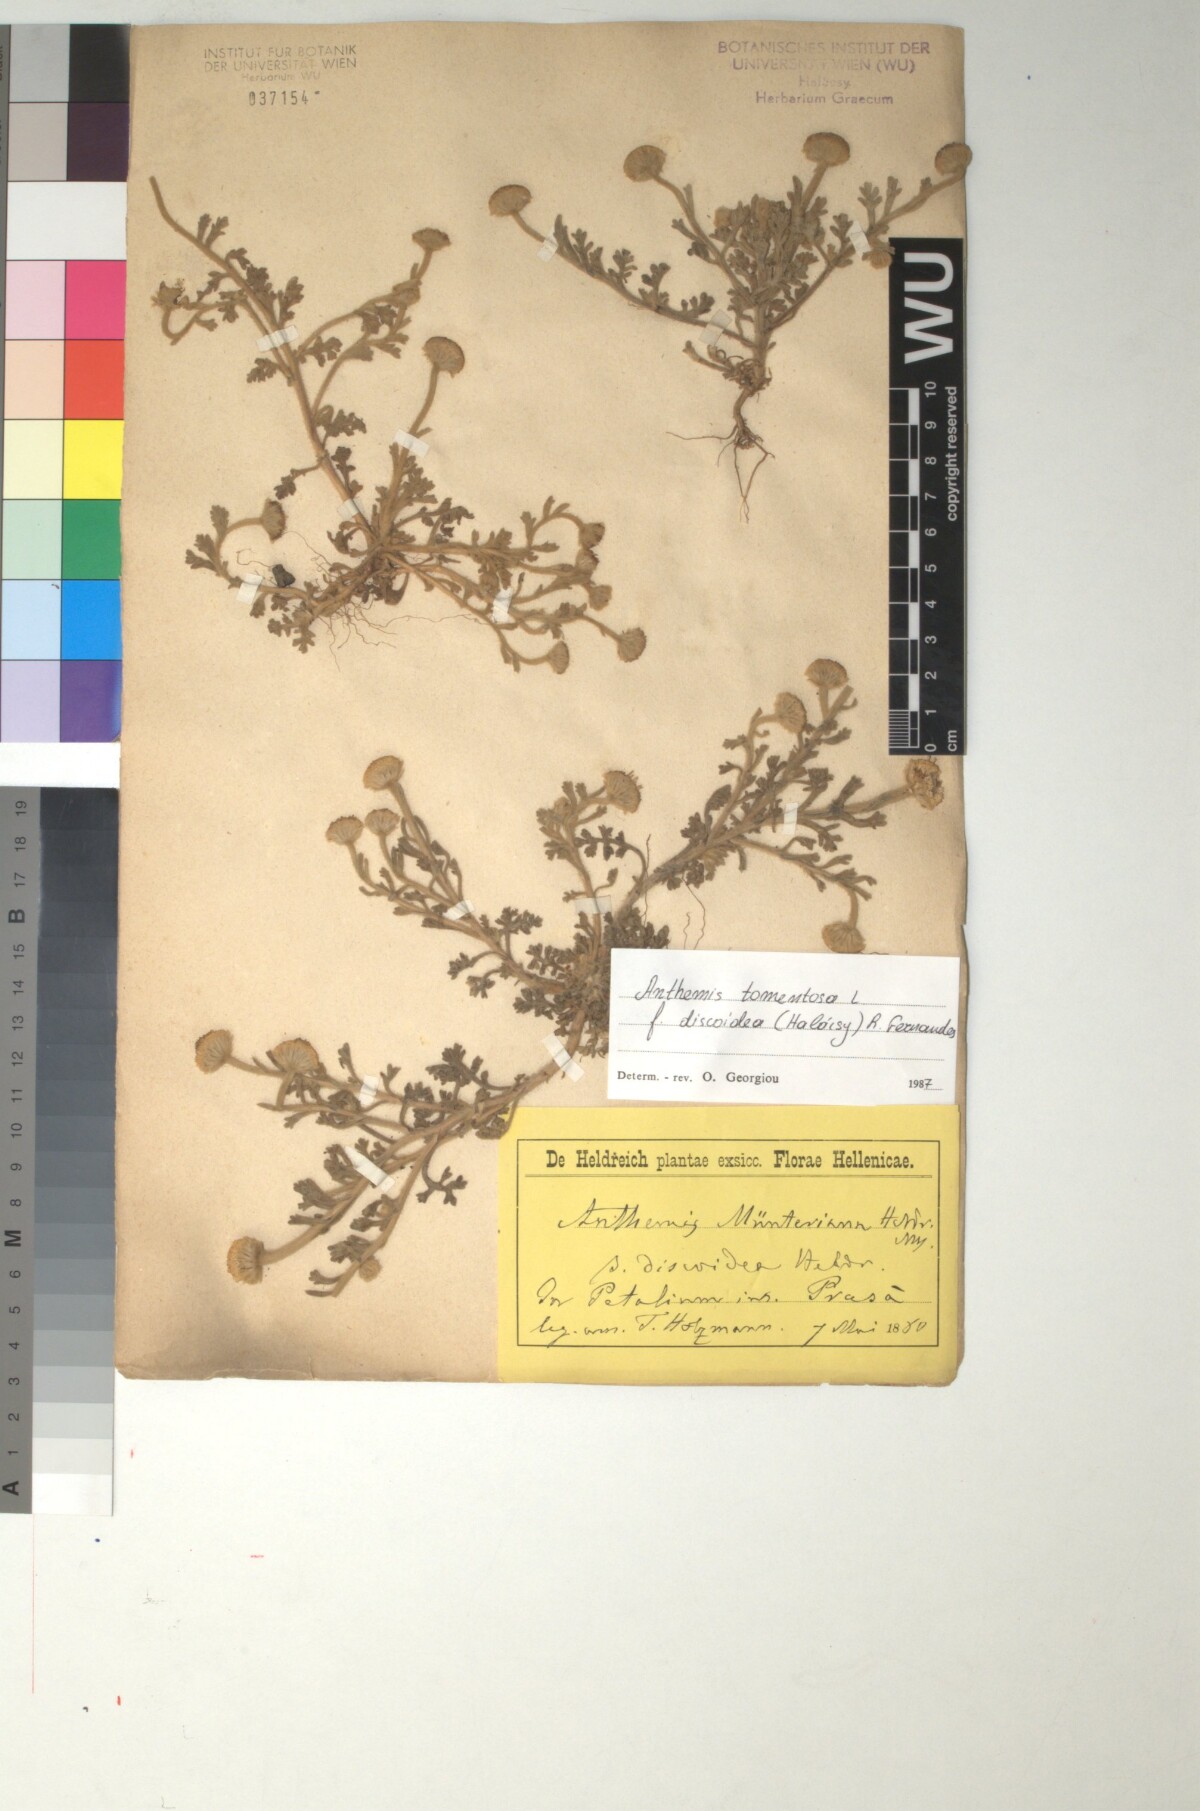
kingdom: Plantae
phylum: Tracheophyta
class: Magnoliopsida
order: Asterales
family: Asteraceae
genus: Anthemis
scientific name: Anthemis tomentosa
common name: Woolly chamomile
